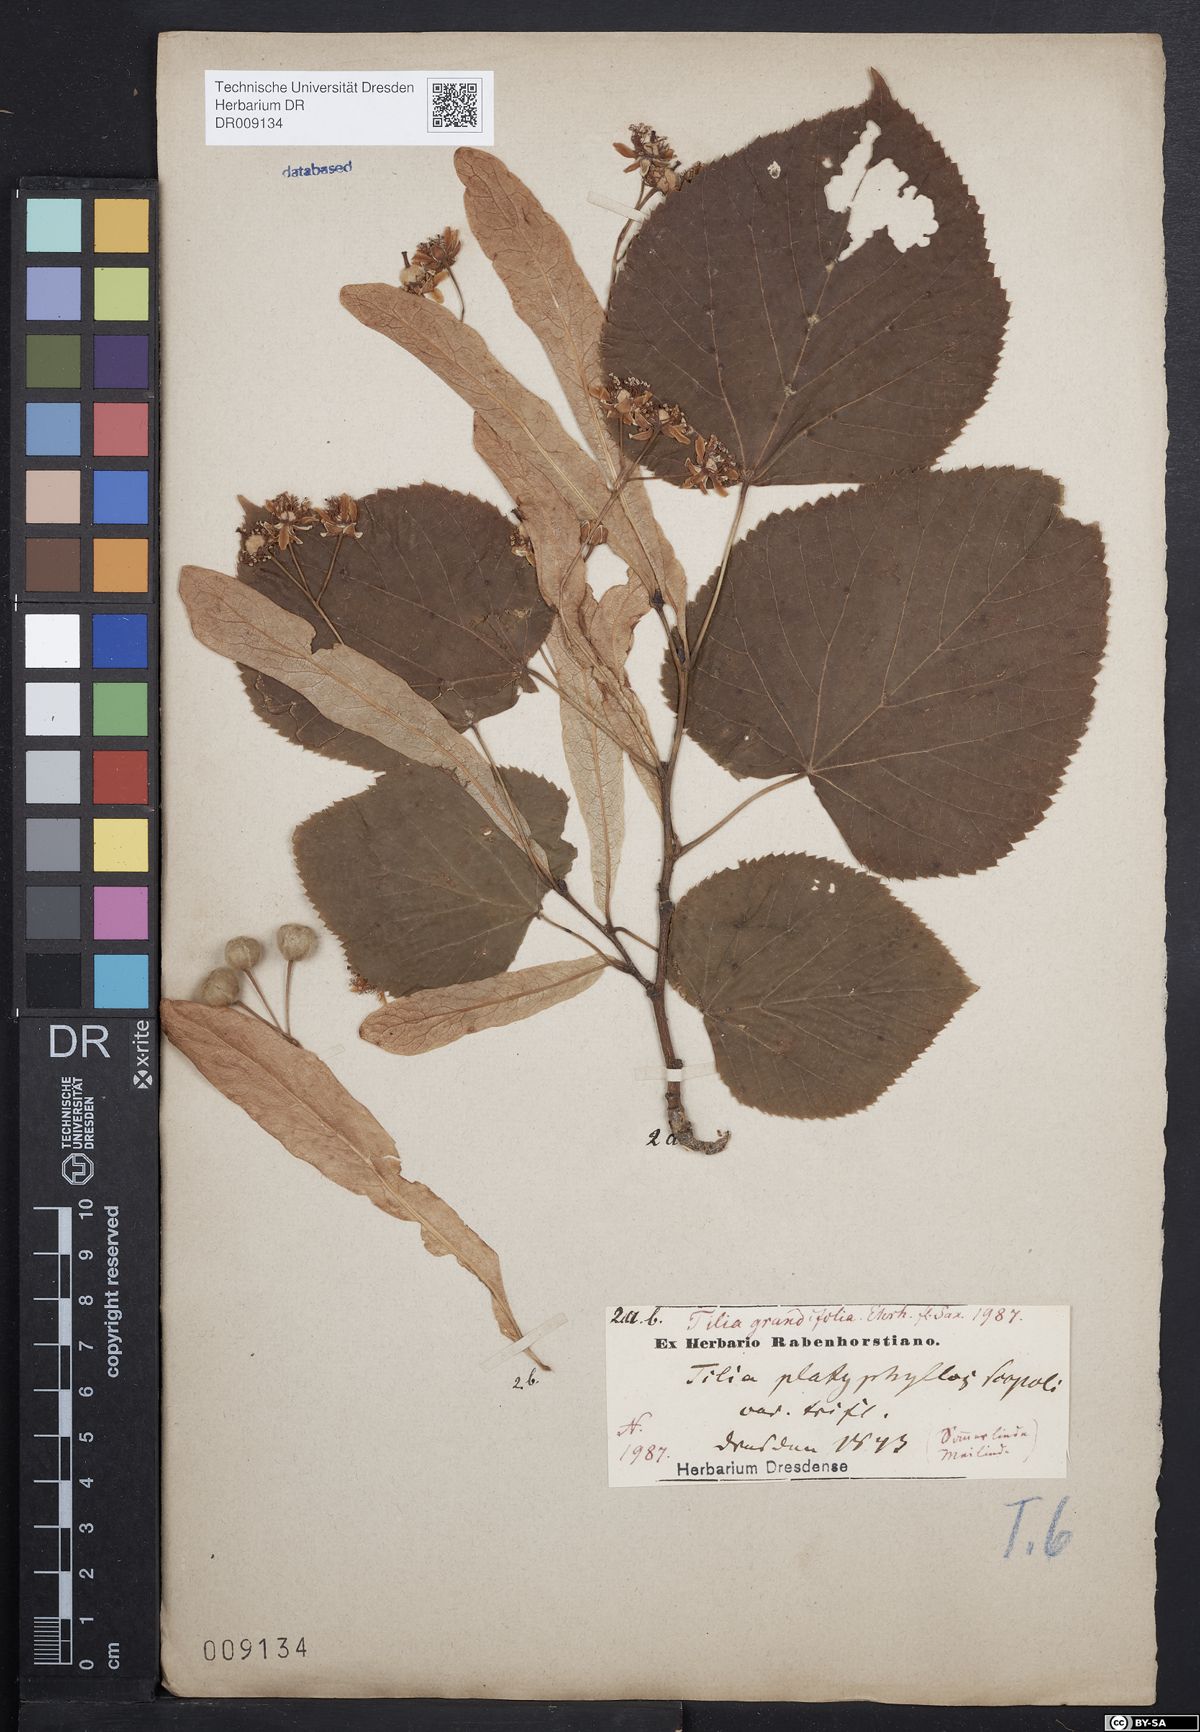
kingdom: Plantae
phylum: Tracheophyta
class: Magnoliopsida
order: Malvales
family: Malvaceae
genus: Tilia
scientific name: Tilia platyphyllos
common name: Large-leaved lime
